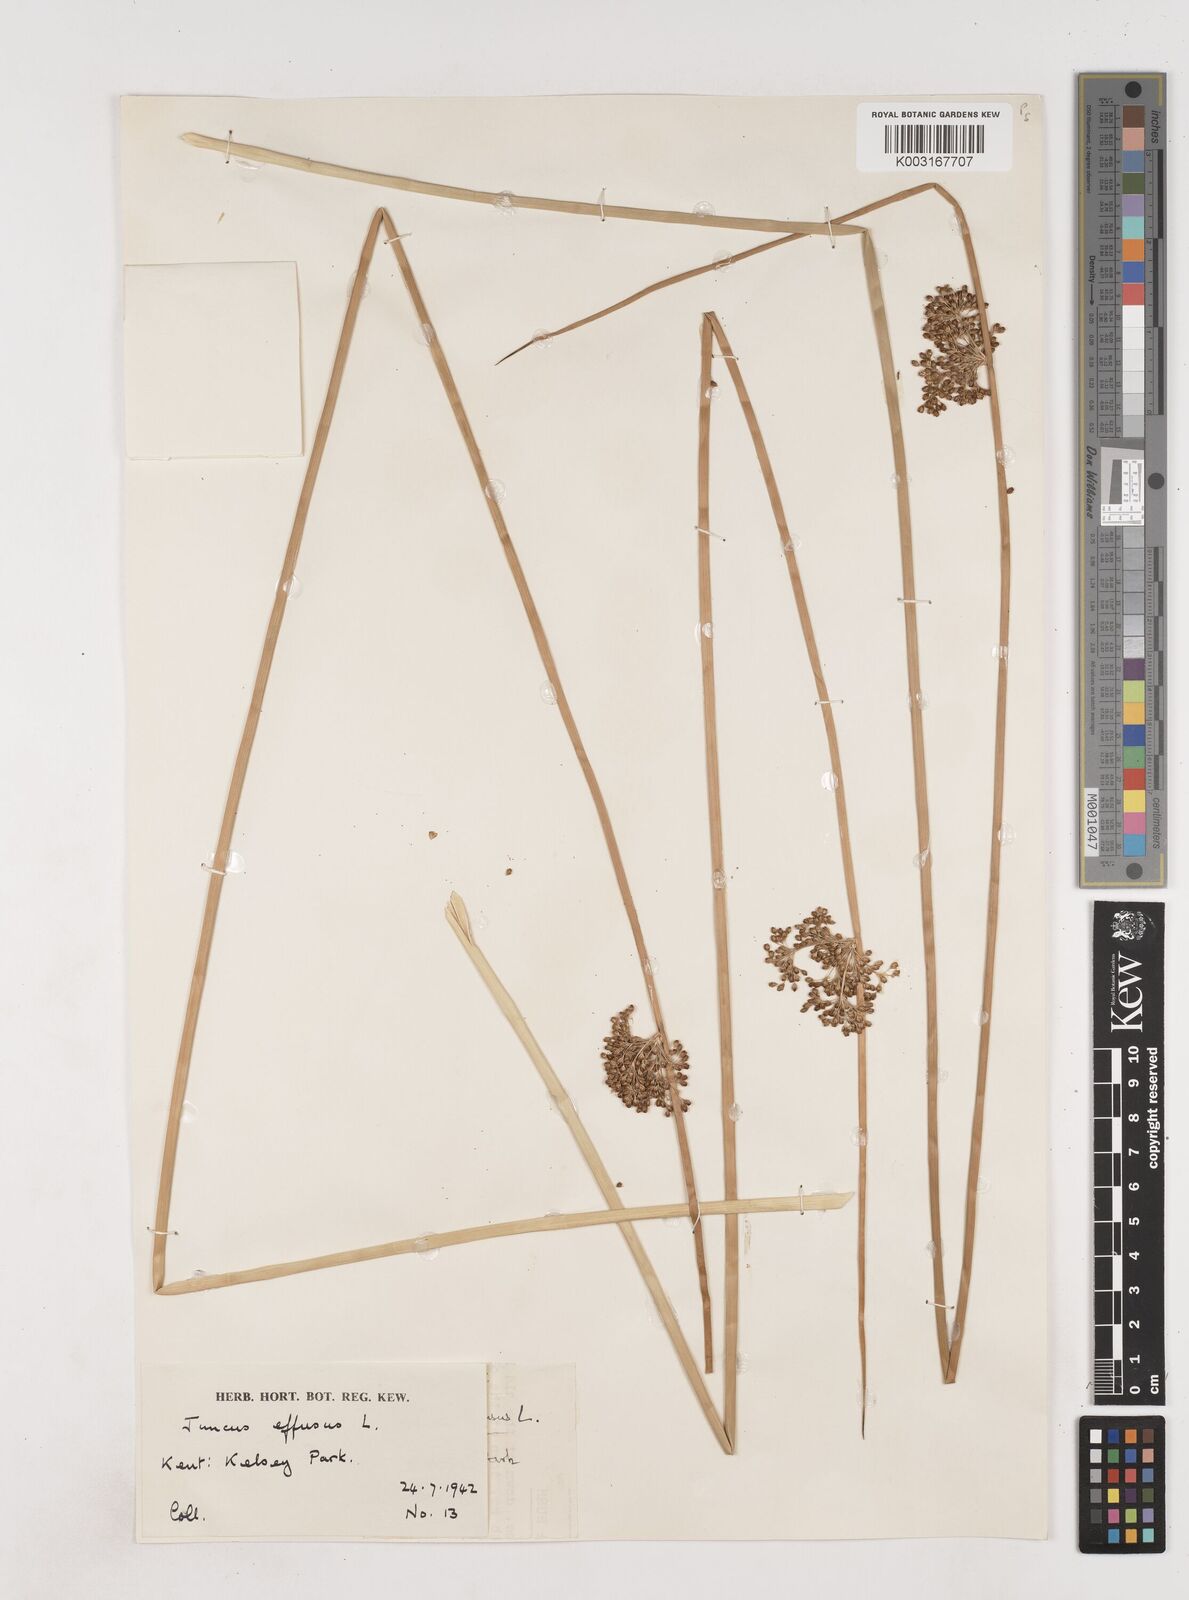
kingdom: Plantae
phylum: Tracheophyta
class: Liliopsida
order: Poales
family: Juncaceae
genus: Juncus
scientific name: Juncus effusus
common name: Soft rush
